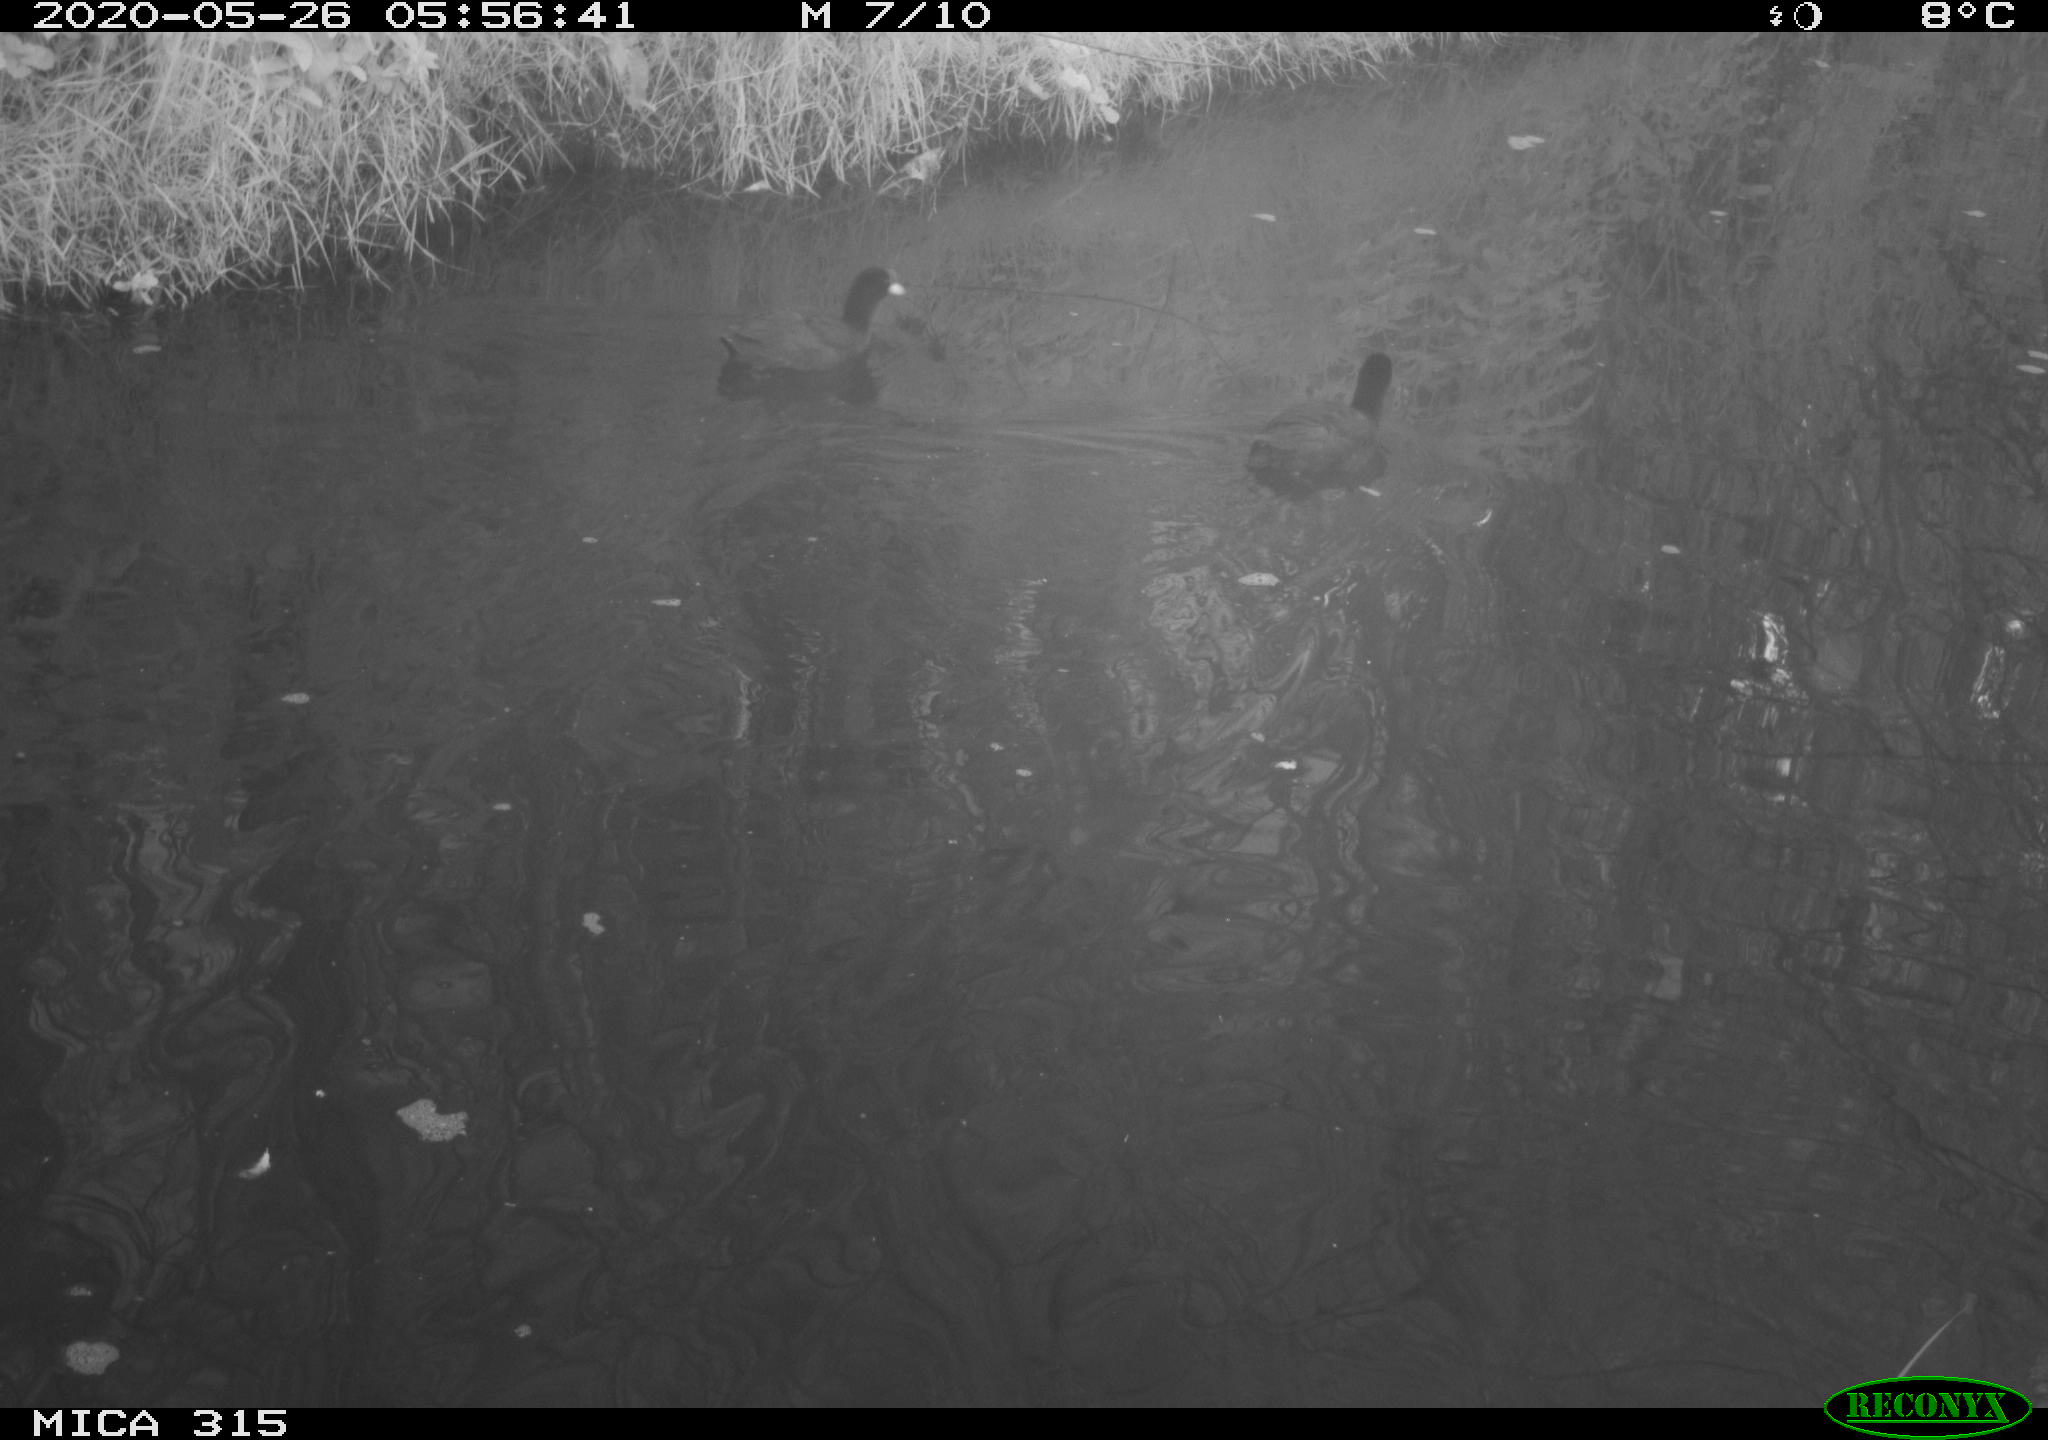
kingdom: Animalia
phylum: Chordata
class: Aves
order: Gruiformes
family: Rallidae
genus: Gallinula
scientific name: Gallinula chloropus
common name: Common moorhen
